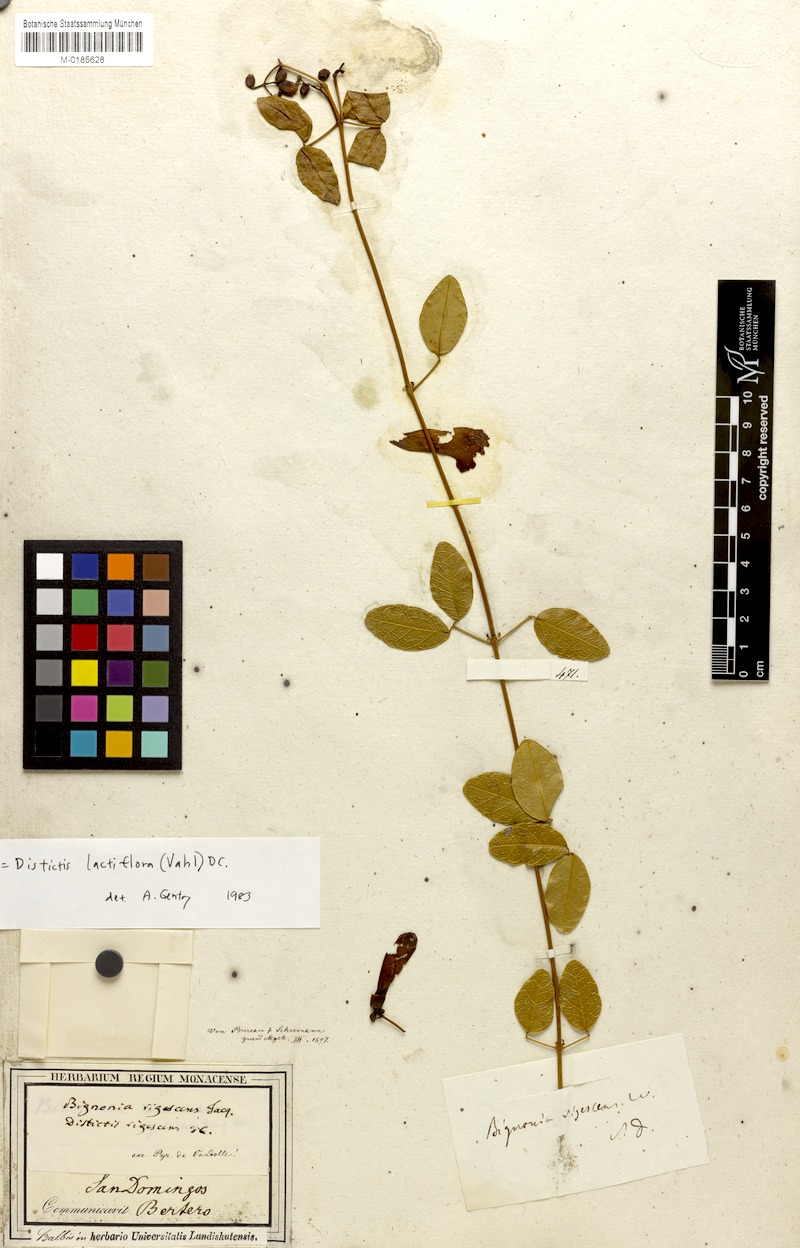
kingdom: Plantae
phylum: Tracheophyta
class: Magnoliopsida
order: Lamiales
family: Bignoniaceae
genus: Amphilophium
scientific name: Amphilophium lactiflorum
